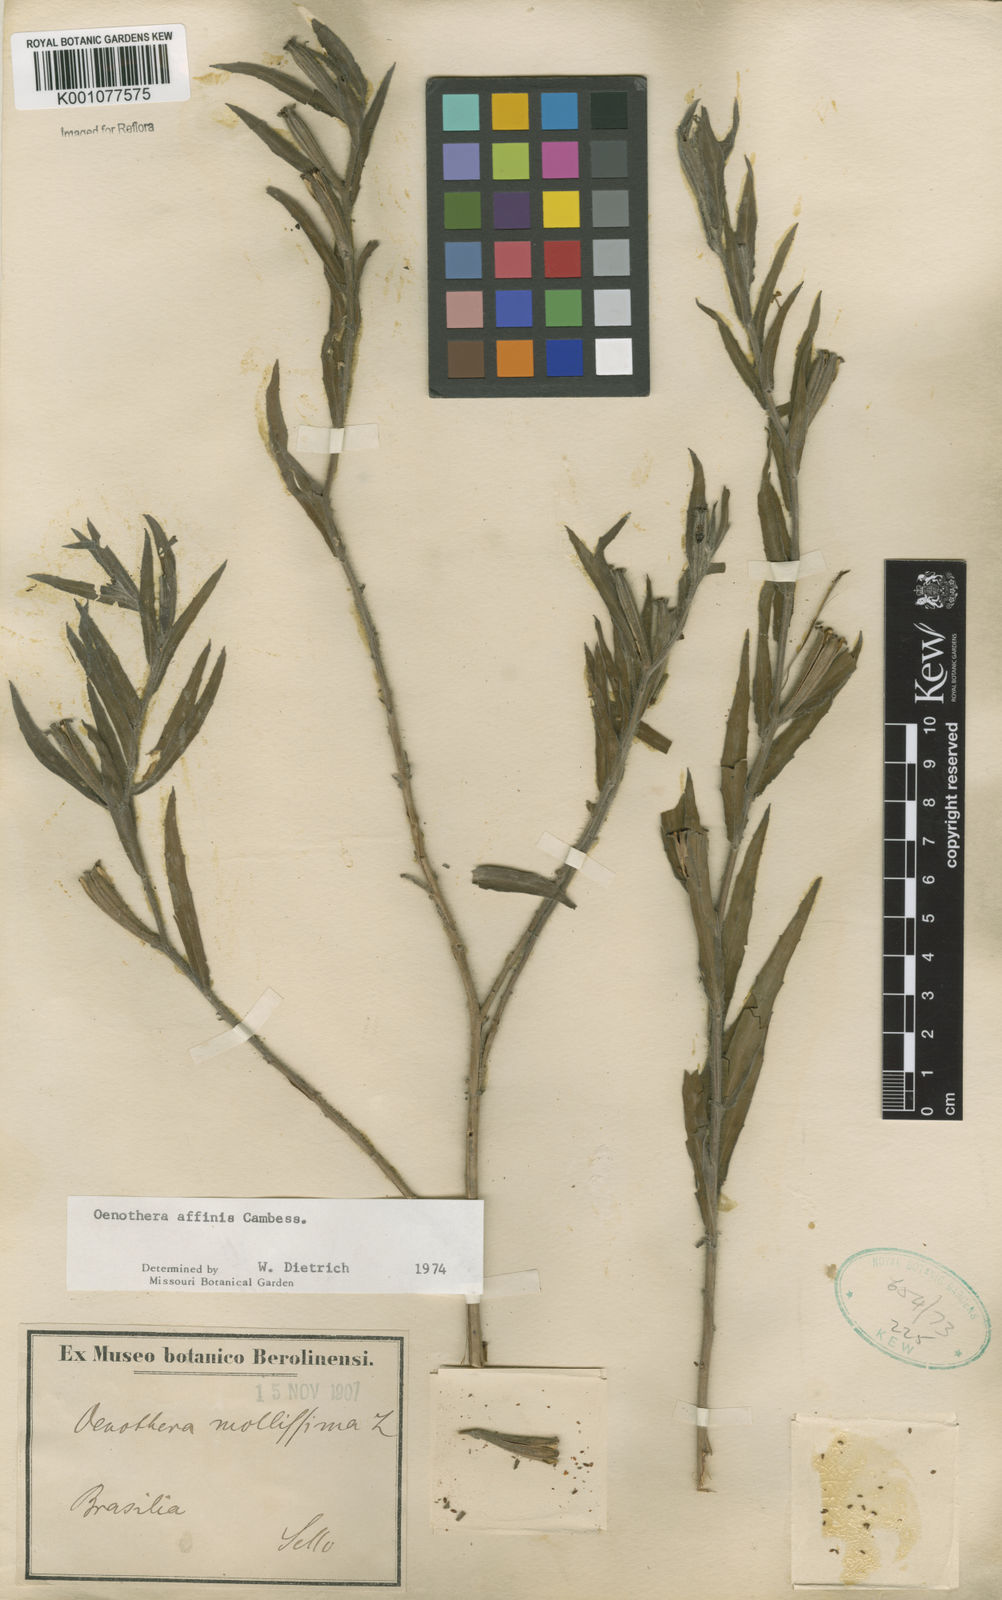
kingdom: Plantae
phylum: Tracheophyta
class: Magnoliopsida
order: Myrtales
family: Onagraceae
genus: Oenothera
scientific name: Oenothera affinis
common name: Longflower evening primrose
